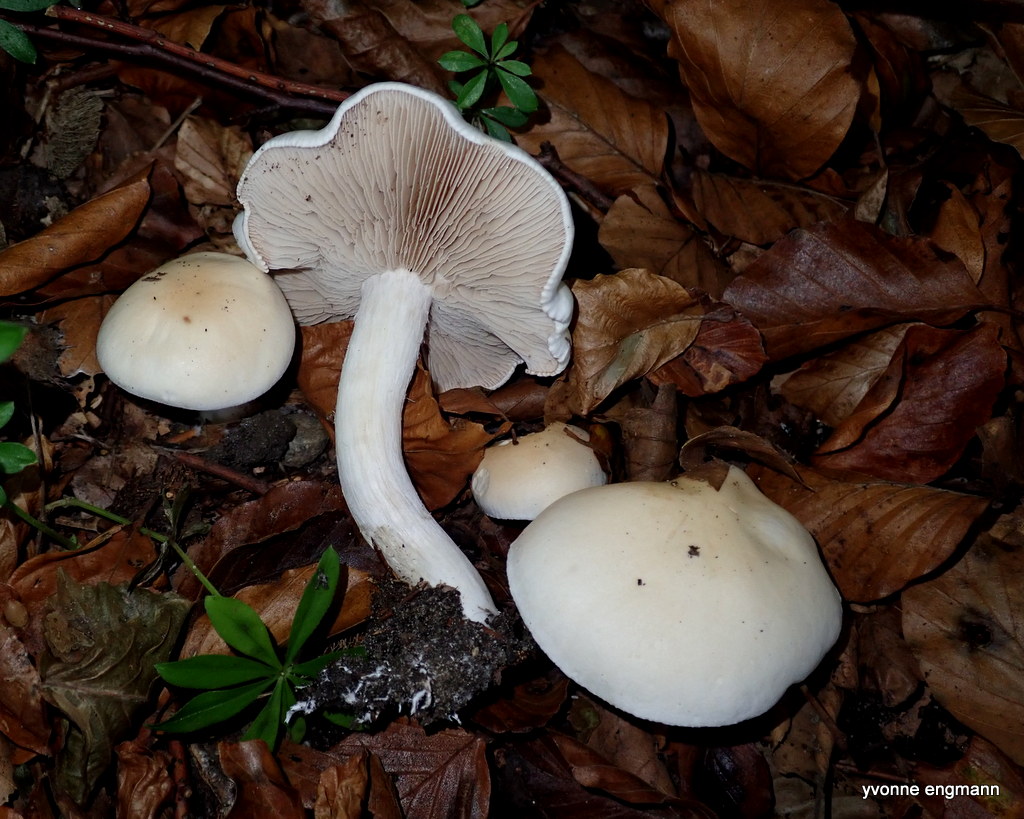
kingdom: Fungi
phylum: Basidiomycota
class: Agaricomycetes
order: Agaricales
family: Hymenogastraceae
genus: Hebeloma
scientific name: Hebeloma
